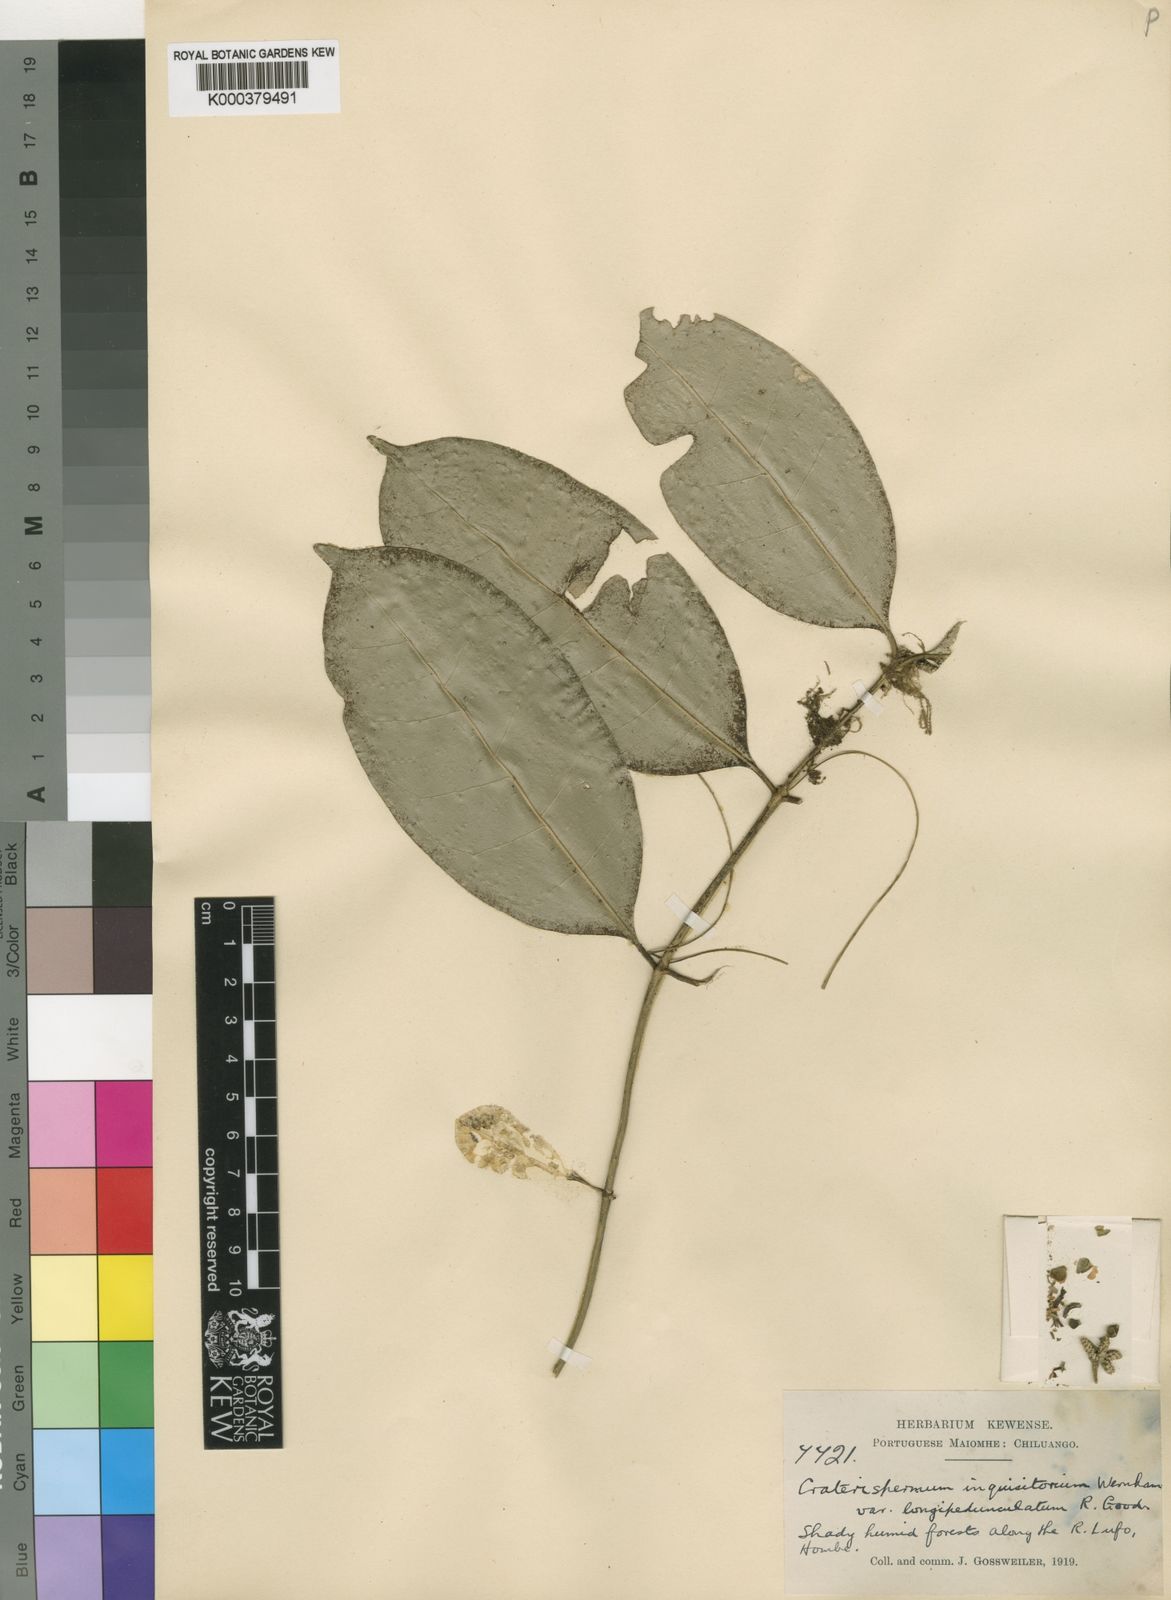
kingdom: Plantae
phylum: Tracheophyta
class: Magnoliopsida
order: Gentianales
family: Rubiaceae
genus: Craterispermum
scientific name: Craterispermum inquisitorium
